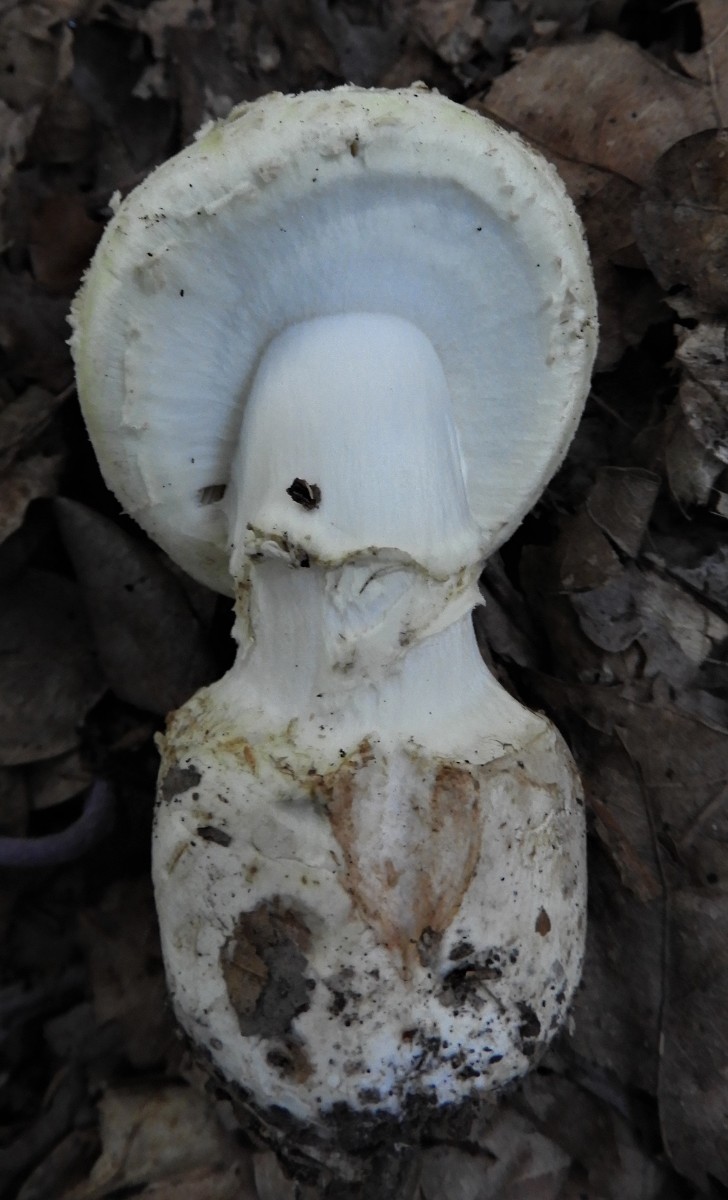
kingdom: Fungi
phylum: Basidiomycota
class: Agaricomycetes
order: Agaricales
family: Amanitaceae
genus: Amanita
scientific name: Amanita citrina
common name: kugleknoldet fluesvamp
